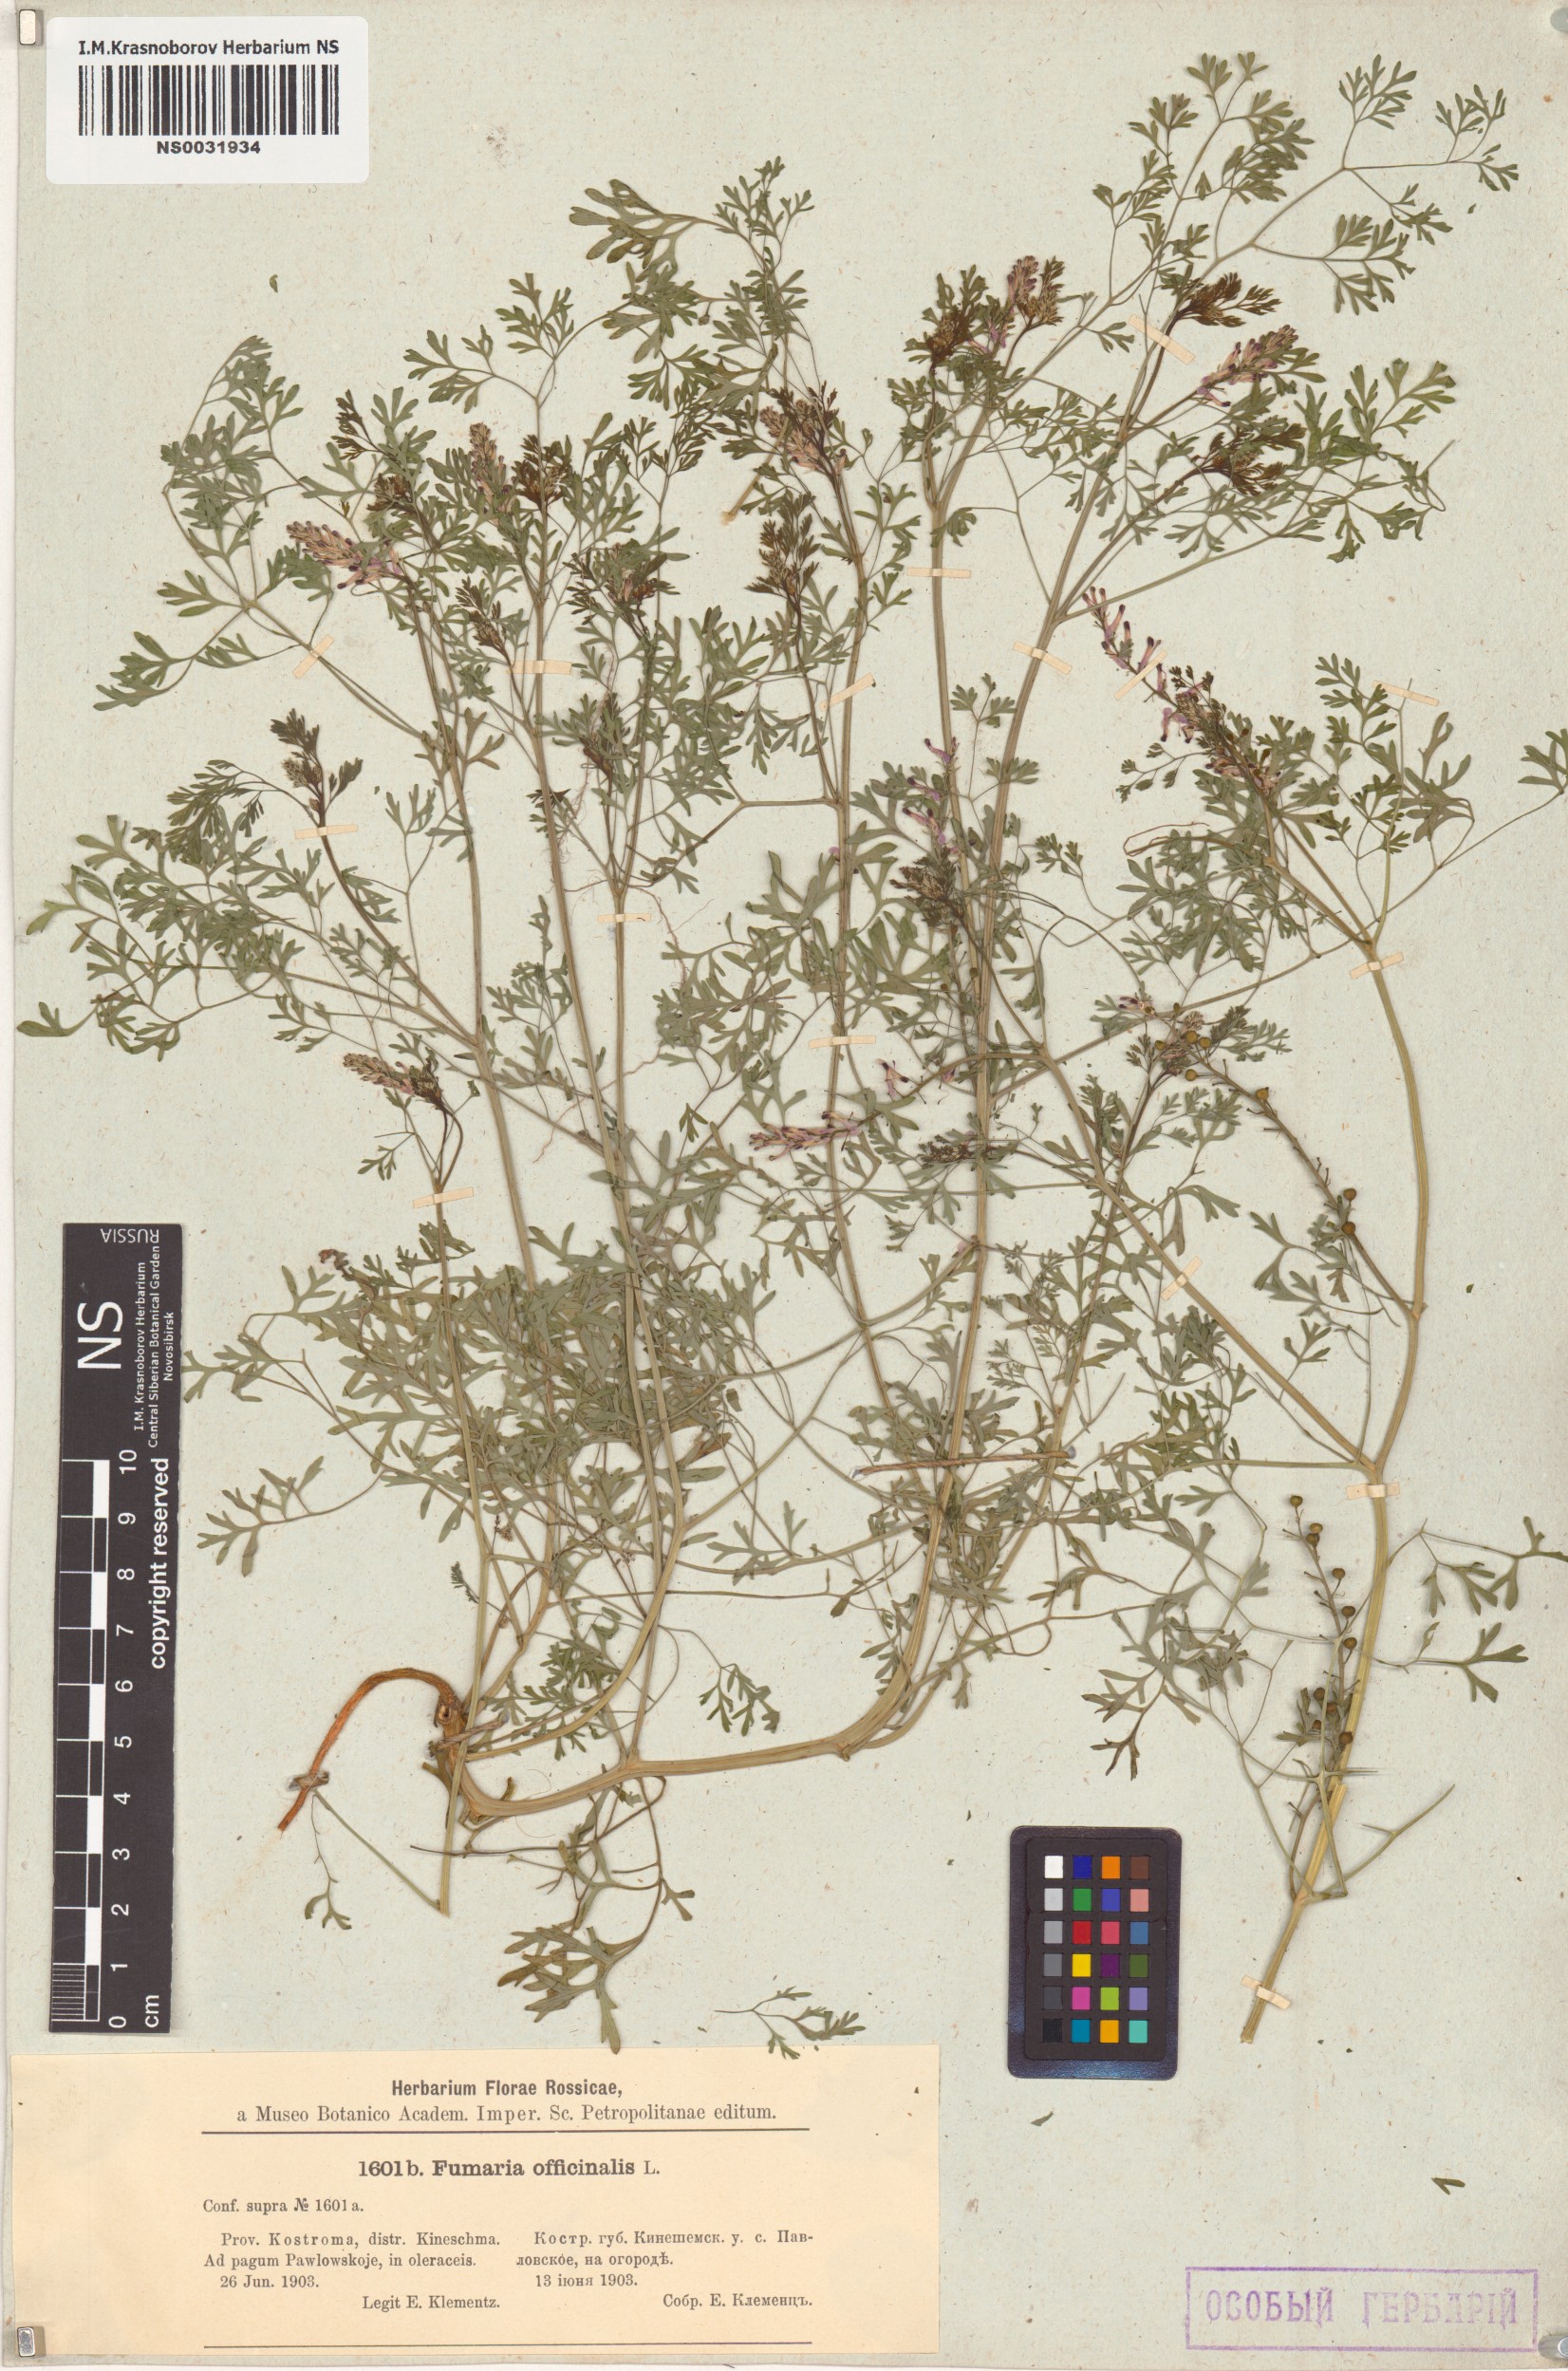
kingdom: Plantae
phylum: Tracheophyta
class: Magnoliopsida
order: Ranunculales
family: Papaveraceae
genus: Fumaria
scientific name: Fumaria officinalis
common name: Common fumitory
